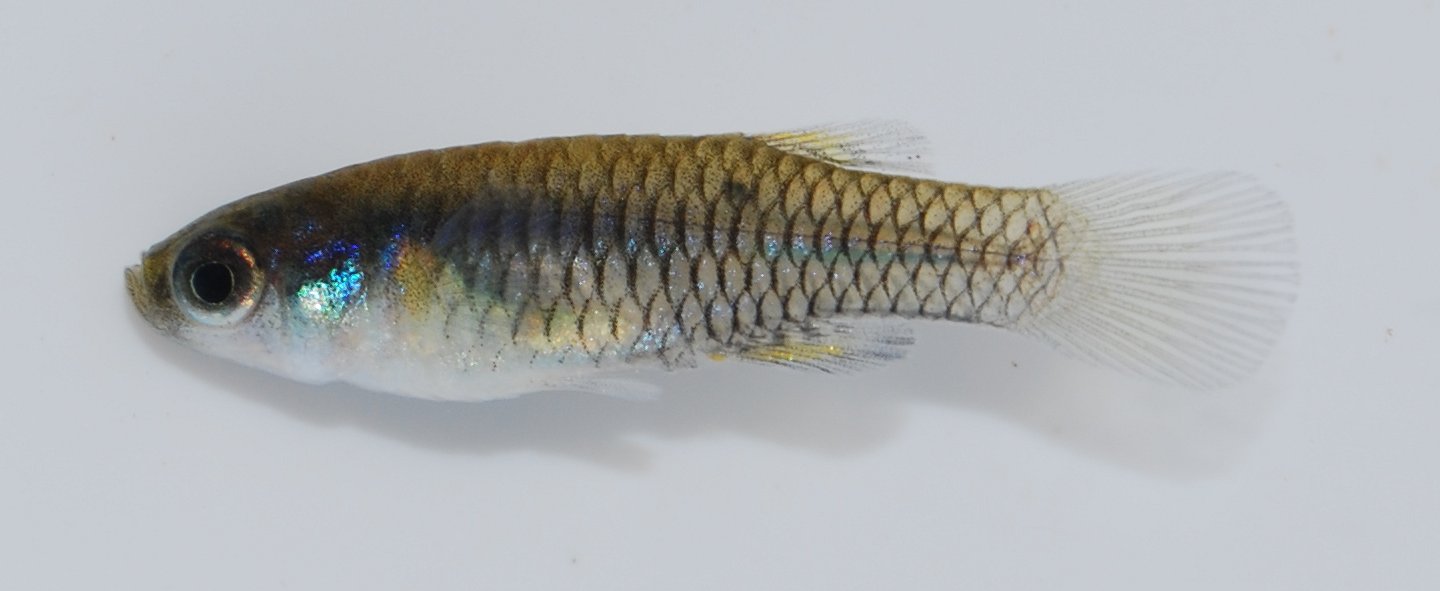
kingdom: Animalia
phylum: Chordata
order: Cyprinodontiformes
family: Poeciliidae
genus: Micropanchax
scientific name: Micropanchax hutereaui
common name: Meshscaled topminnow
